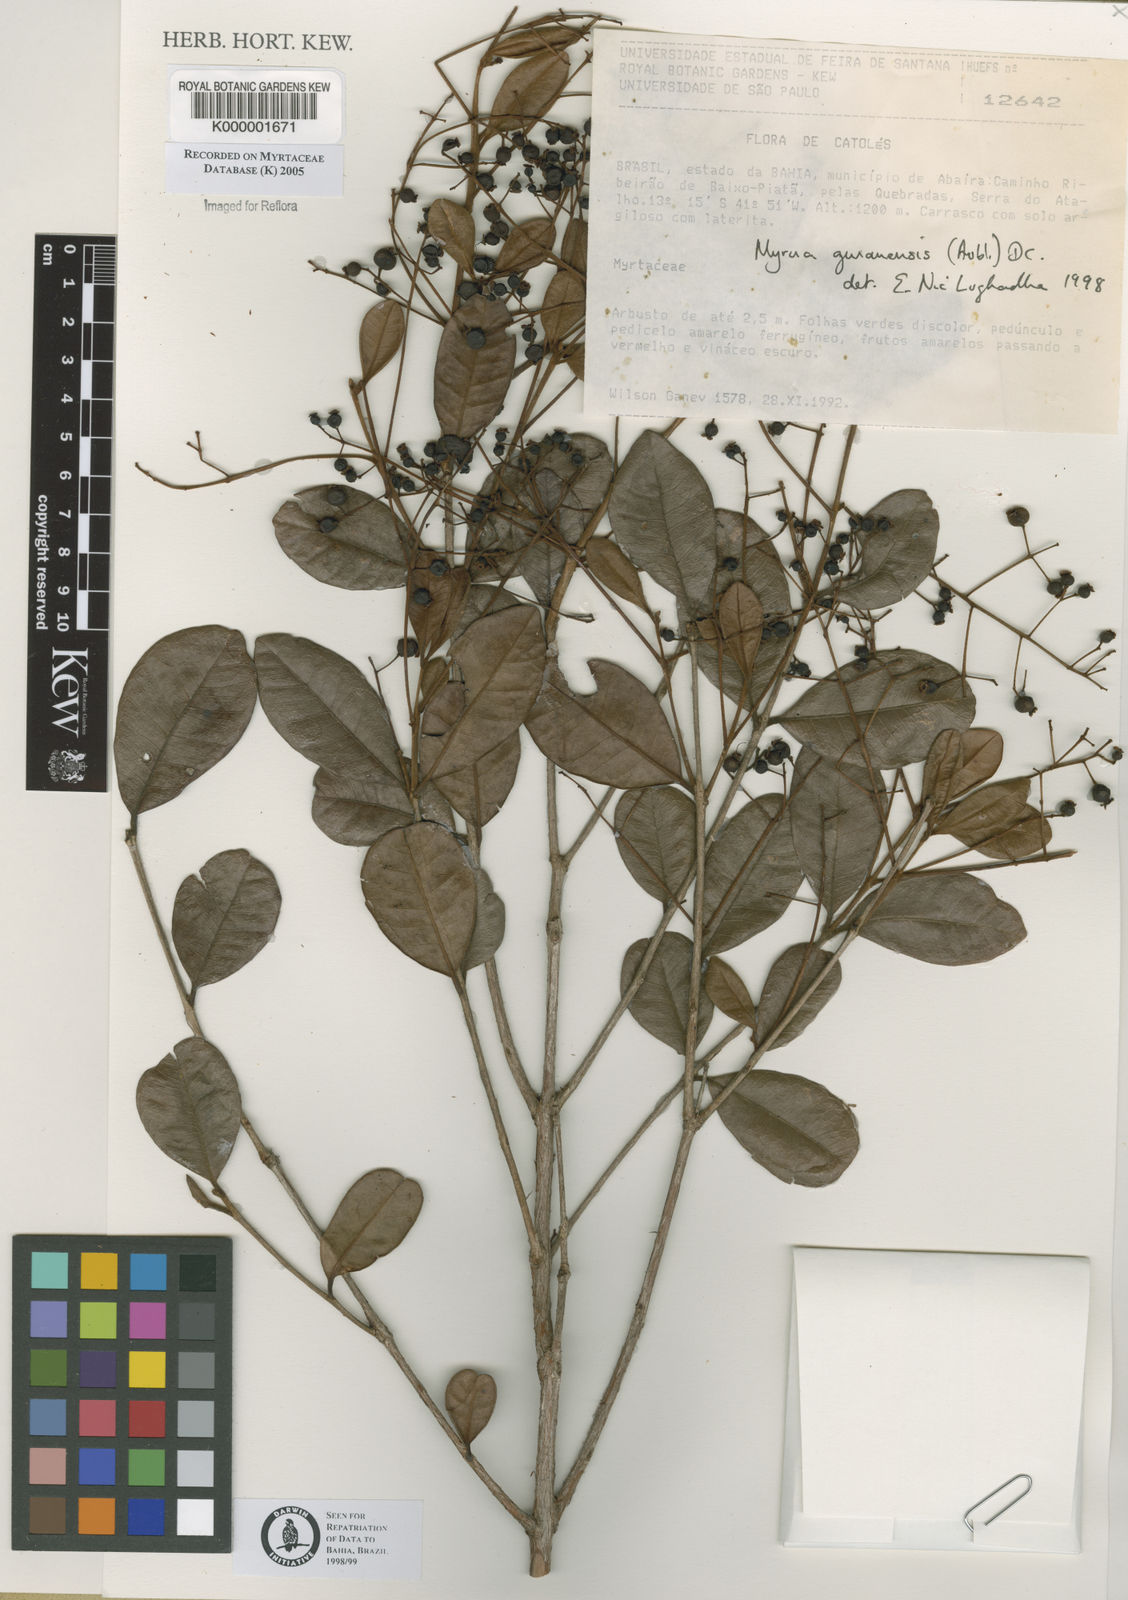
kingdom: Plantae
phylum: Tracheophyta
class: Magnoliopsida
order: Myrtales
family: Myrtaceae
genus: Myrcia
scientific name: Myrcia guianensis
